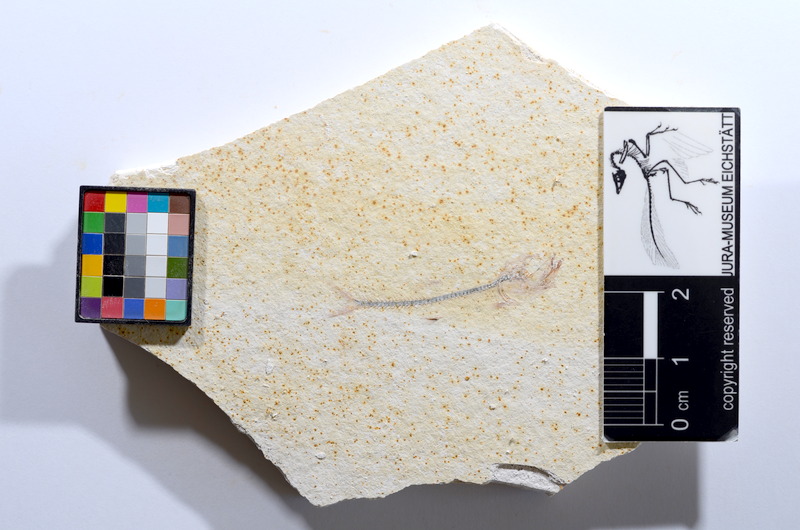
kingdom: Animalia
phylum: Chordata
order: Salmoniformes
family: Orthogonikleithridae
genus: Orthogonikleithrus
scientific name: Orthogonikleithrus hoelli
